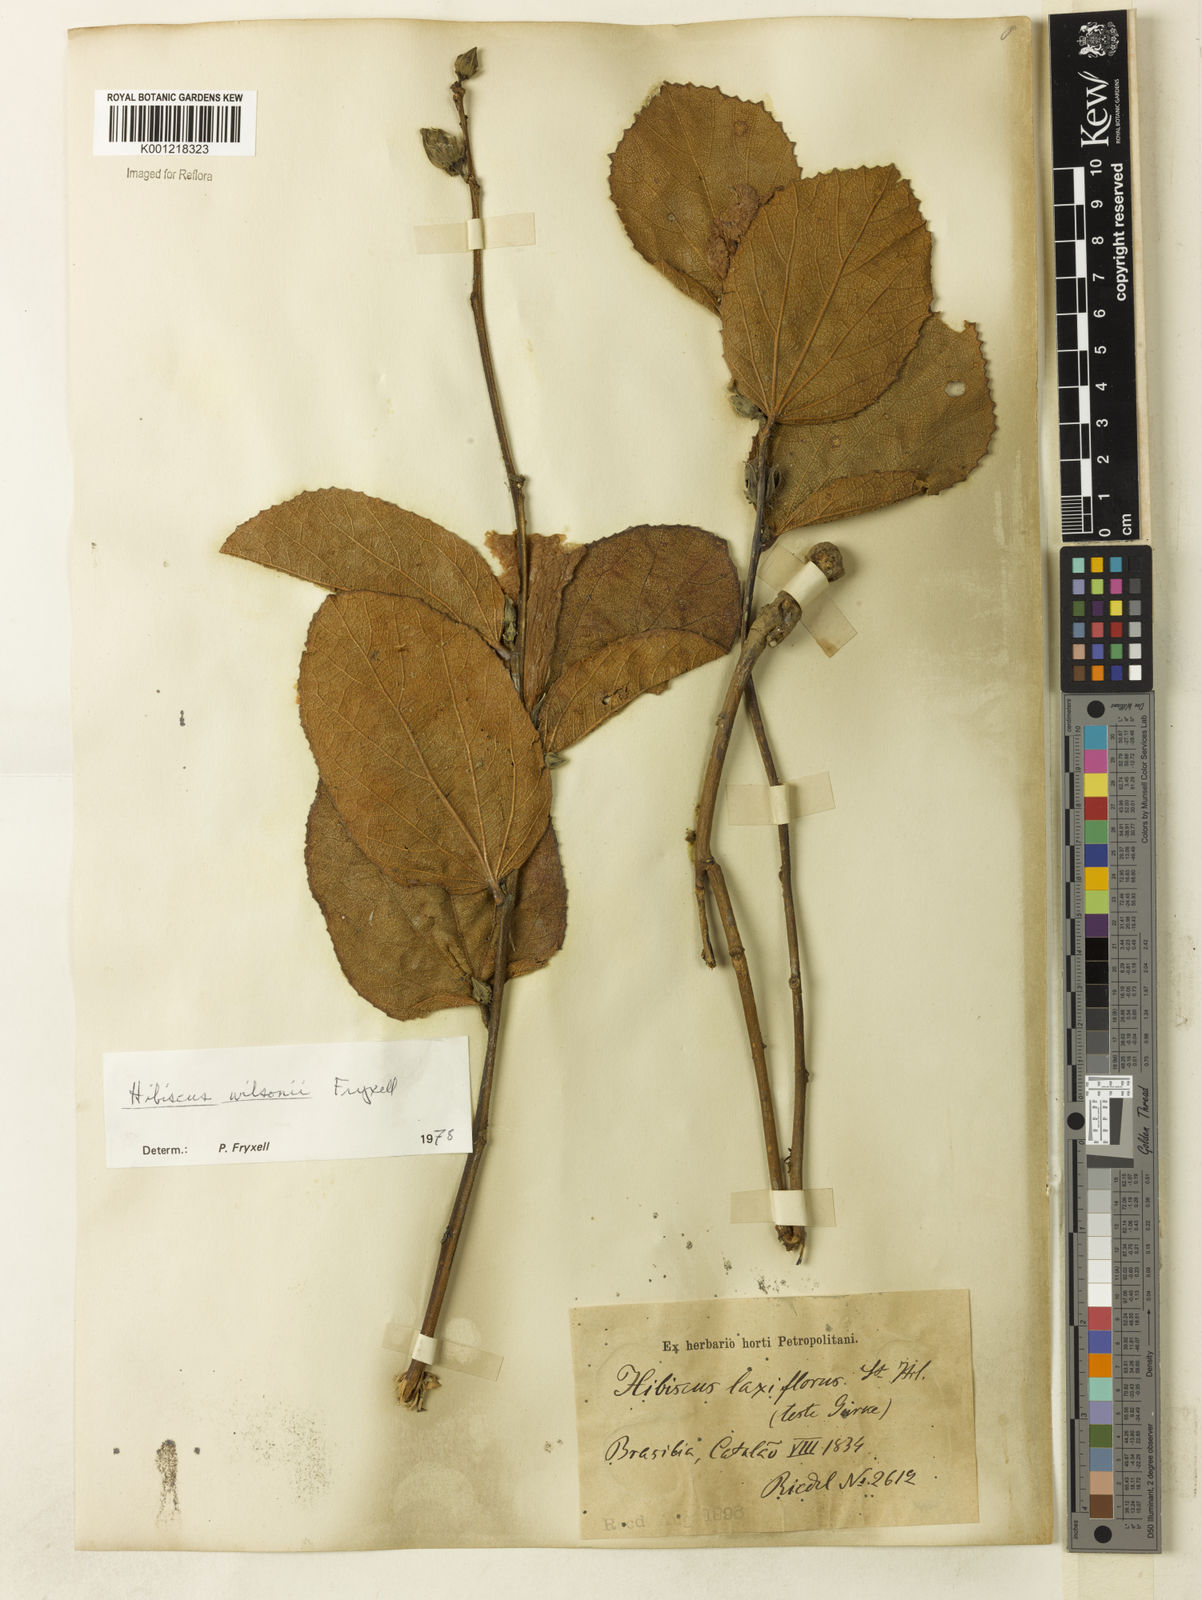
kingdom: Plantae
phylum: Tracheophyta
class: Magnoliopsida
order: Malvales
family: Malvaceae
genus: Hibiscus
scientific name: Hibiscus wilsonii
